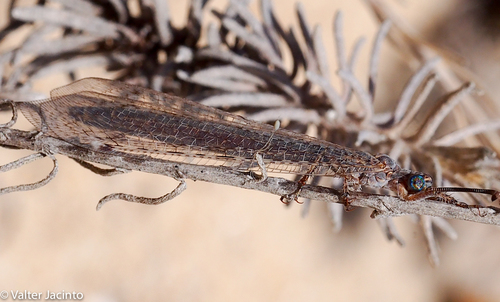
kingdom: Animalia
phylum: Arthropoda
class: Insecta
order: Neuroptera
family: Myrmeleontidae
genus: Creoleon
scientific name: Creoleon lugdunensis
